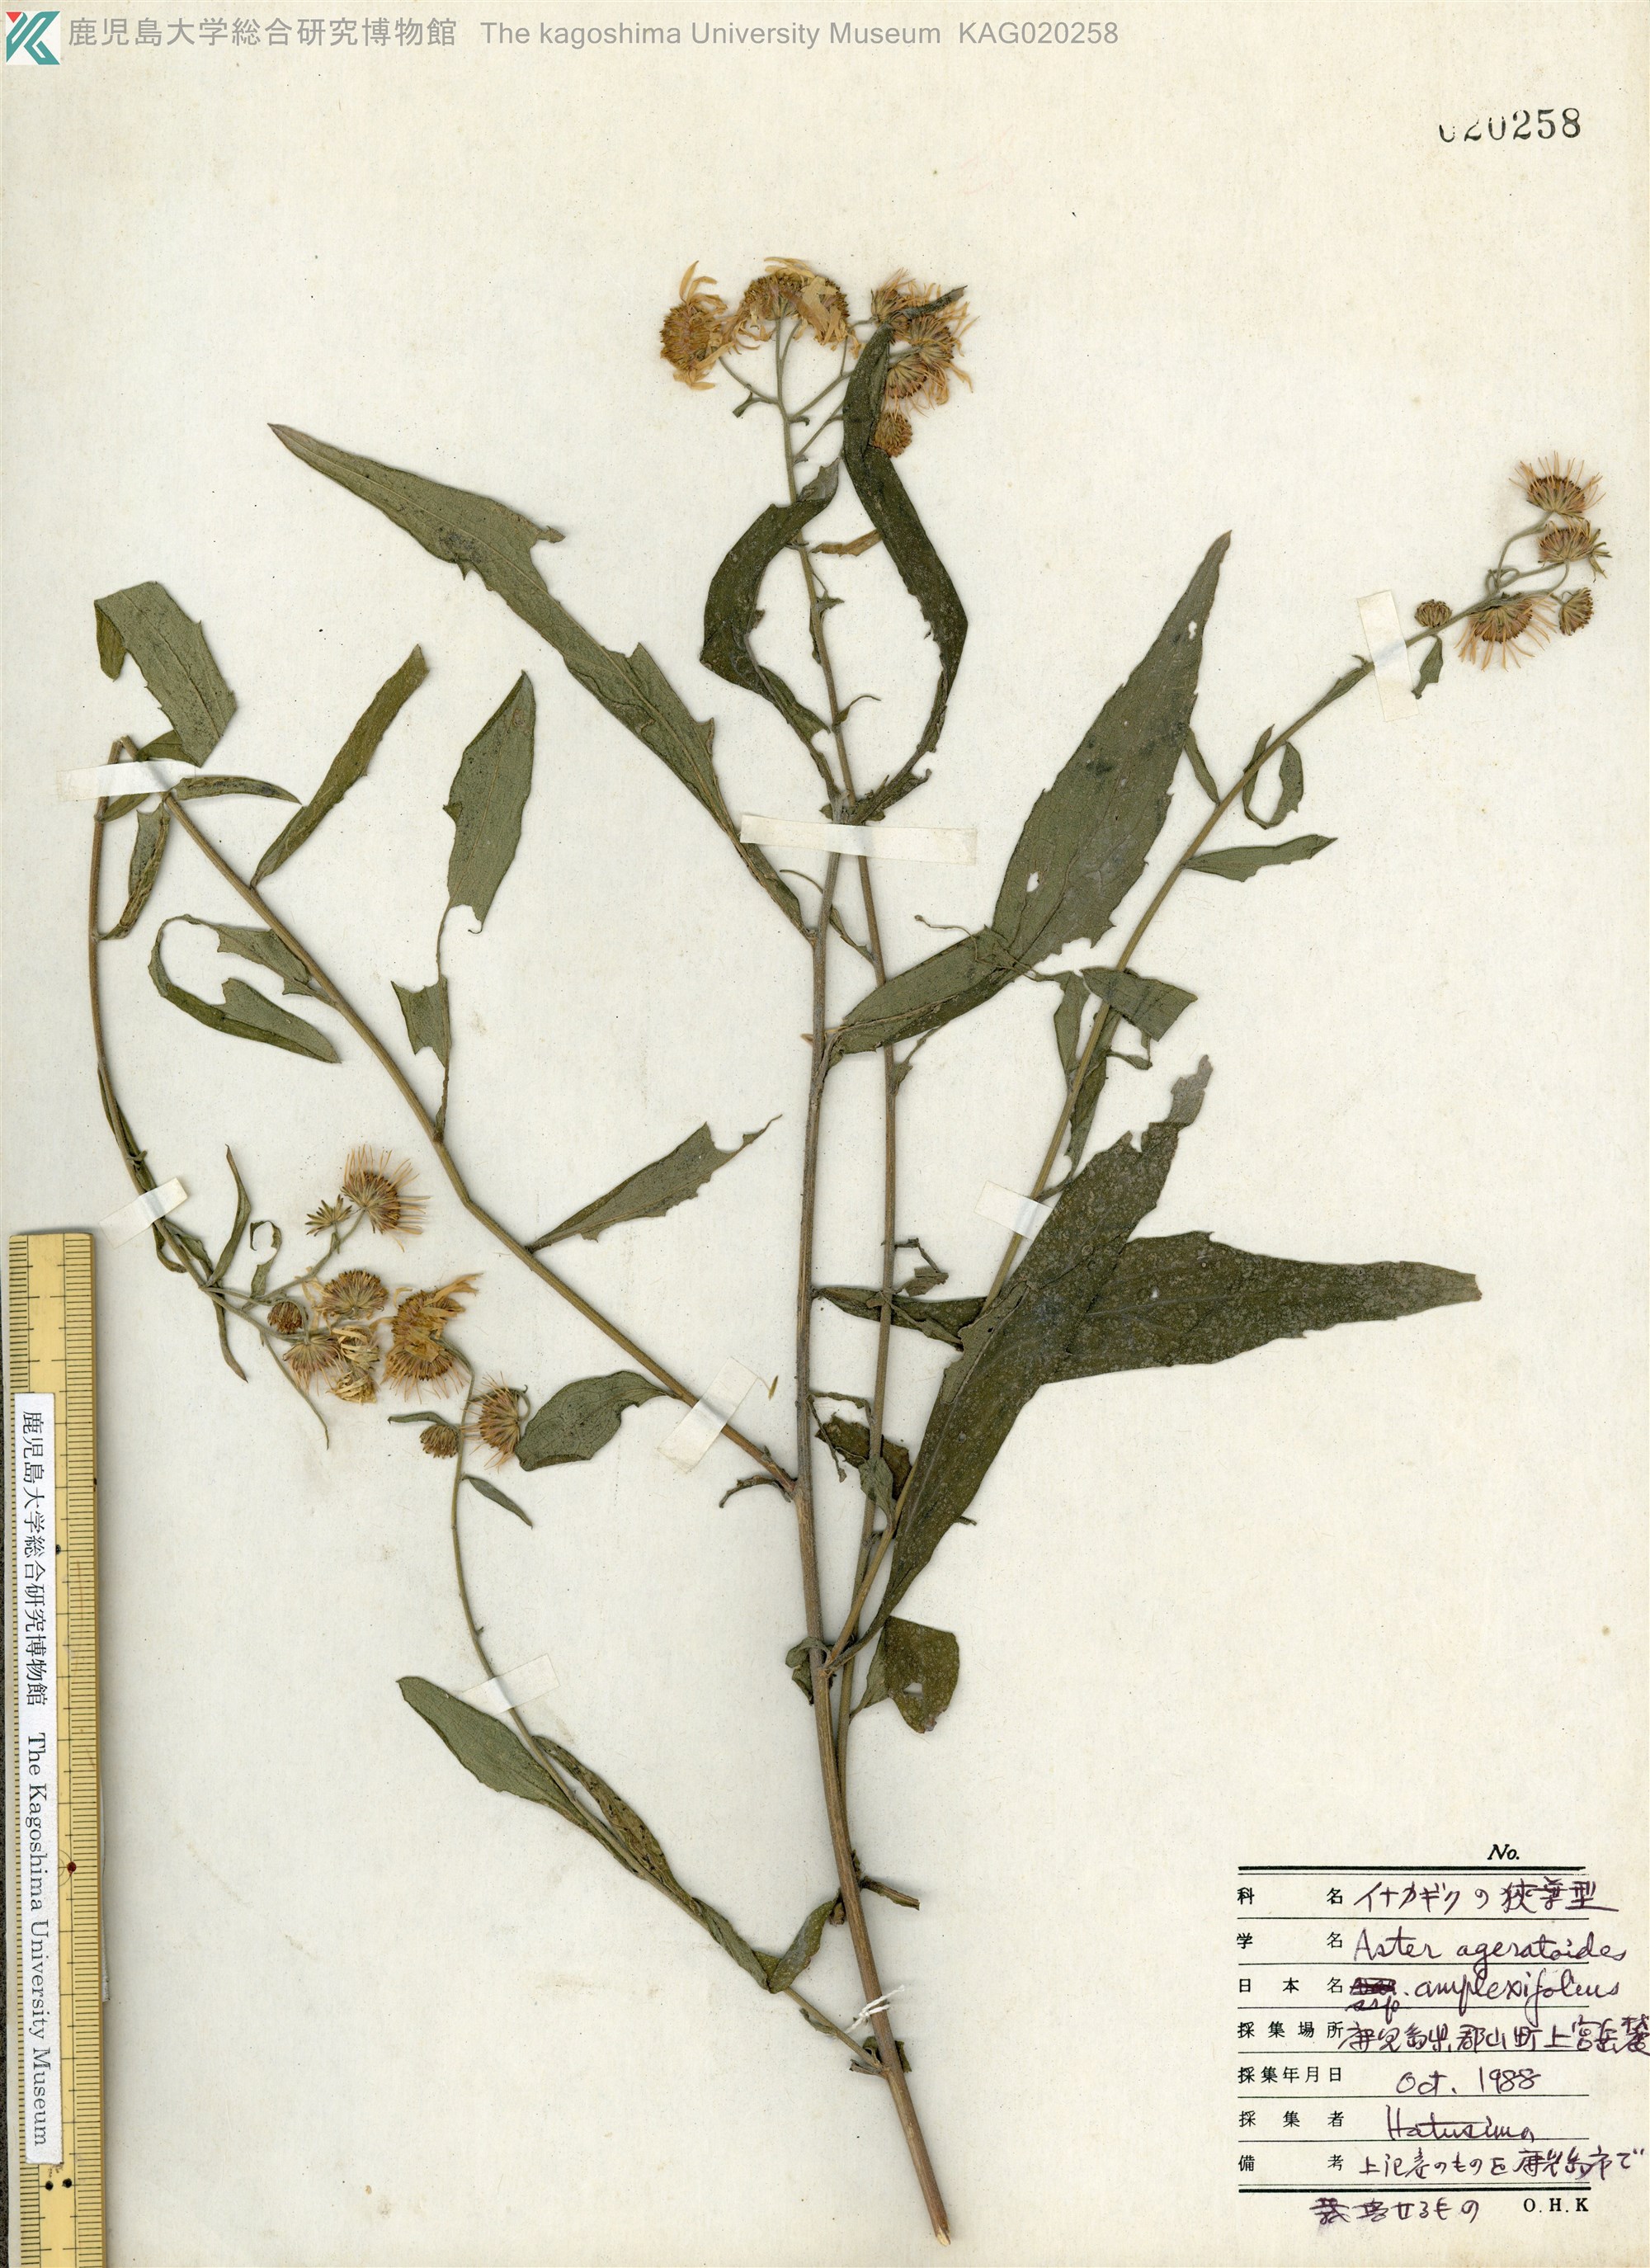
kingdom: Plantae
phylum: Tracheophyta
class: Magnoliopsida
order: Asterales
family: Asteraceae
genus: Aster
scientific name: Aster microcephalus
